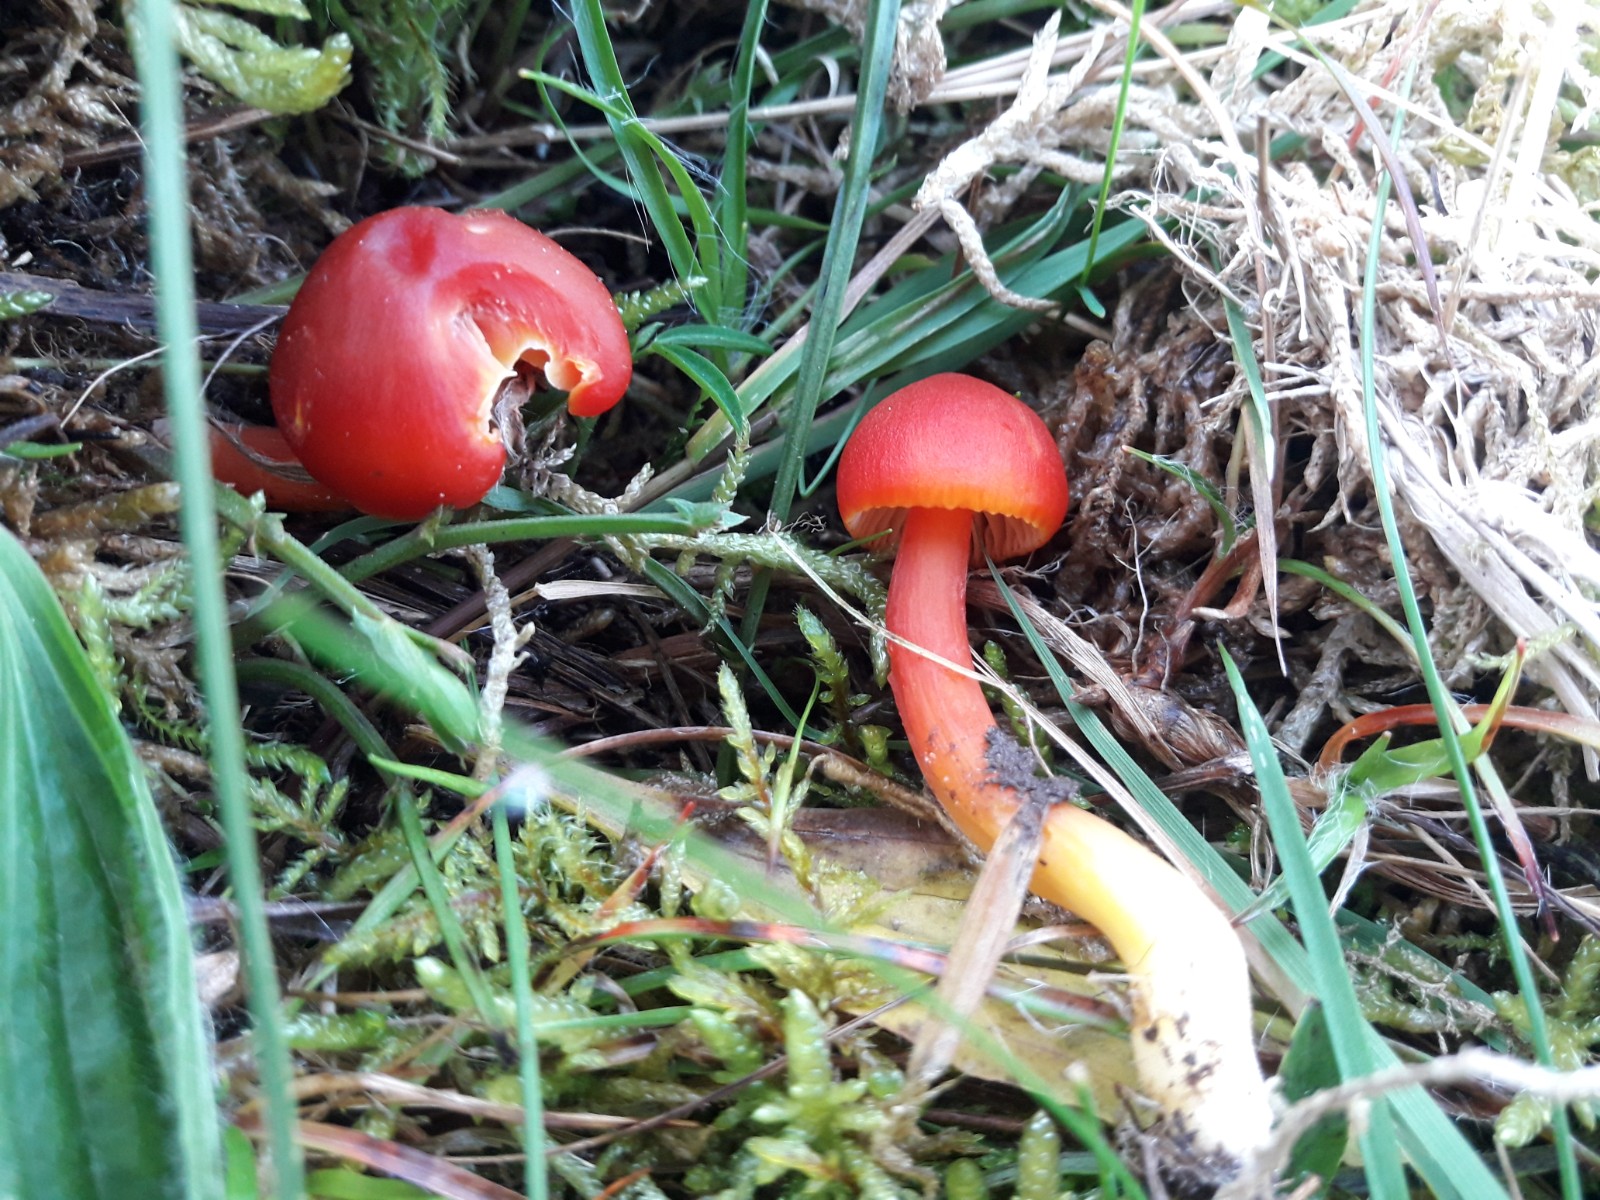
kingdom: Fungi
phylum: Basidiomycota
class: Agaricomycetes
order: Agaricales
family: Hygrophoraceae
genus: Hygrocybe
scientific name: Hygrocybe coccinea
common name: cinnober-vokshat
